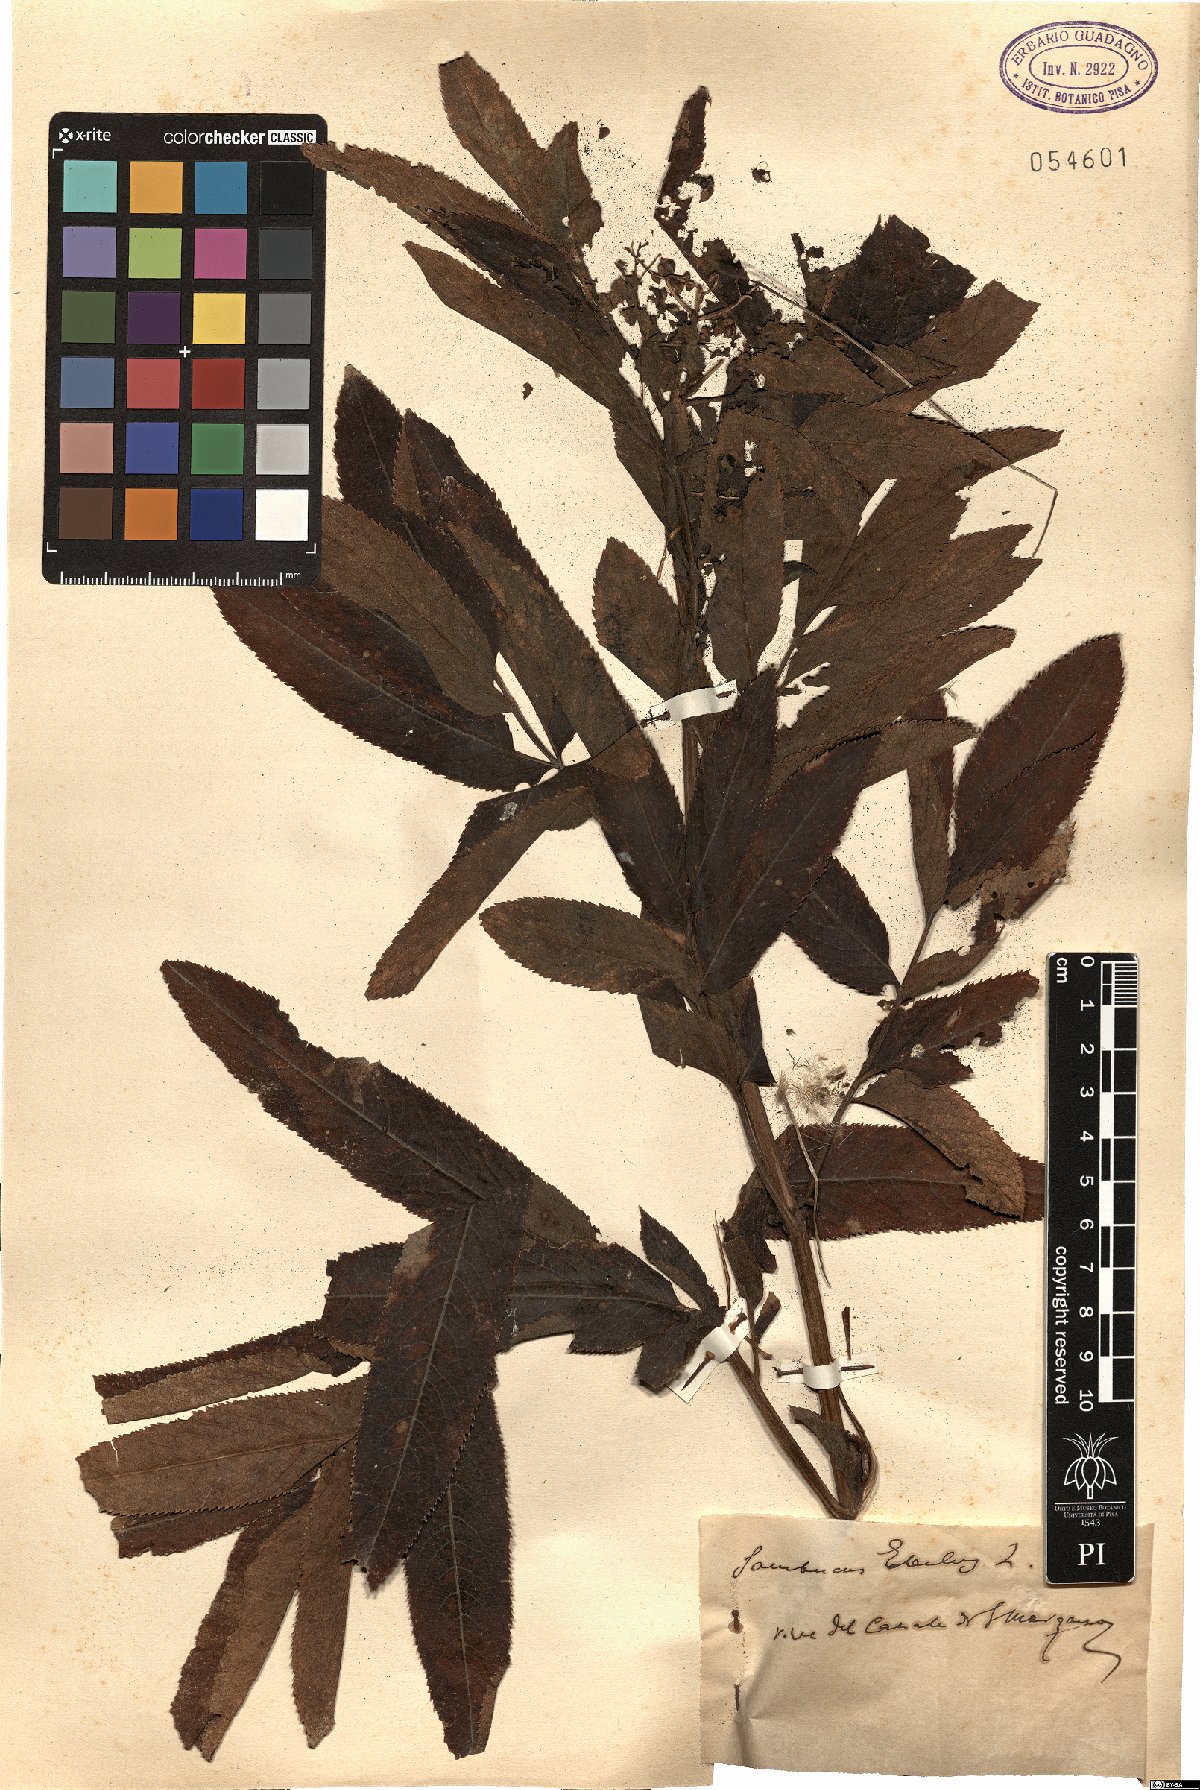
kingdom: Plantae
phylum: Tracheophyta
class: Magnoliopsida
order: Dipsacales
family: Viburnaceae
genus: Sambucus
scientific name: Sambucus ebulus
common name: Dwarf elder
